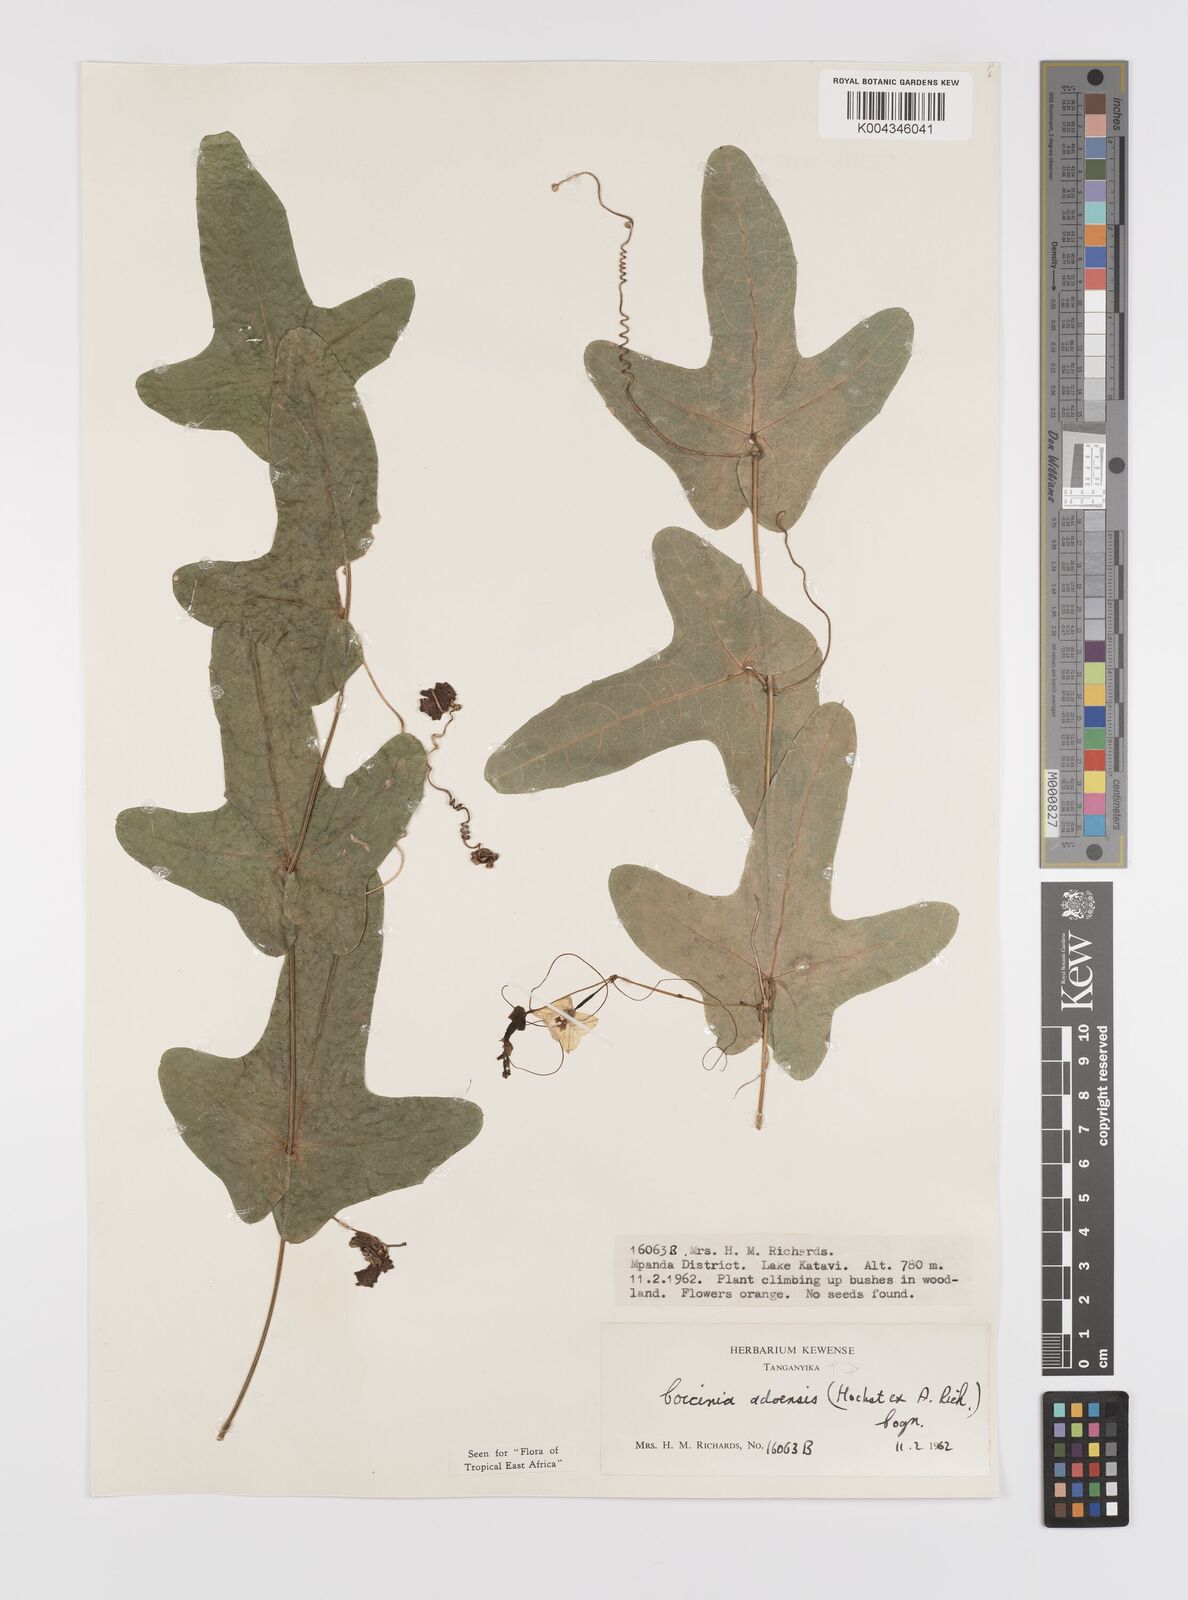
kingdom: Plantae
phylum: Tracheophyta
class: Magnoliopsida
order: Cucurbitales
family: Cucurbitaceae
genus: Coccinia
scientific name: Coccinia adoensis
